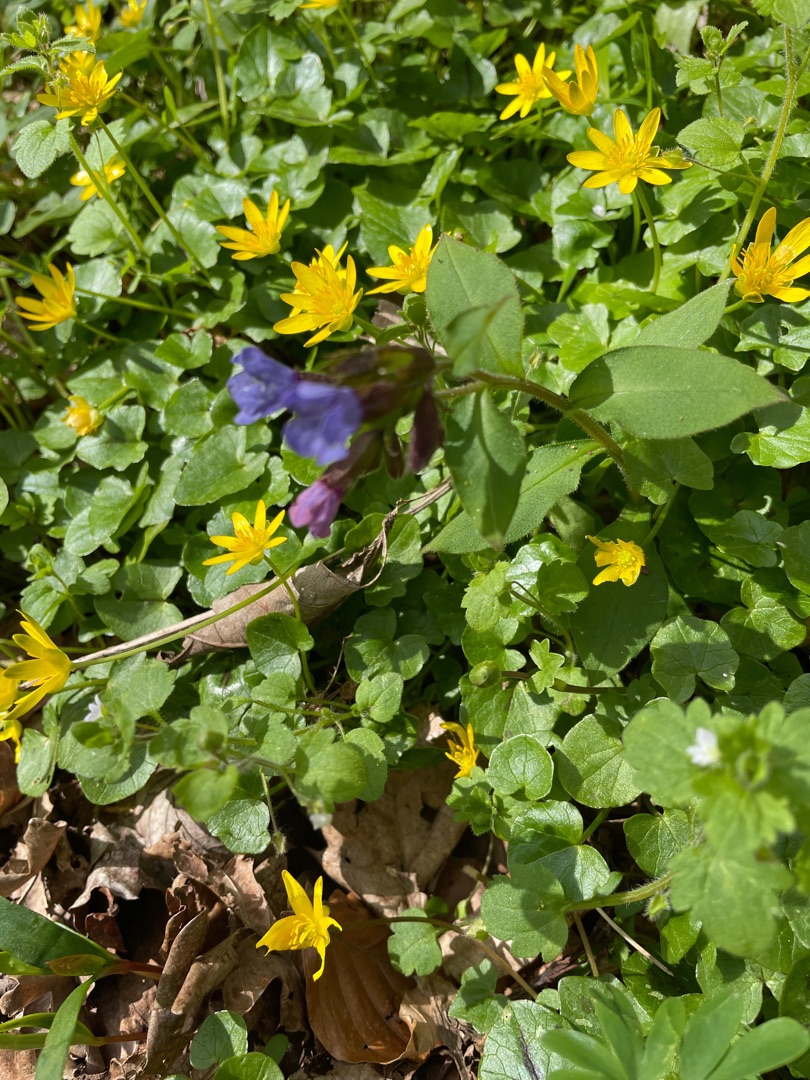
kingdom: Plantae
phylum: Tracheophyta
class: Magnoliopsida
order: Boraginales
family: Boraginaceae
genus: Pulmonaria
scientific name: Pulmonaria obscura
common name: Almindelig lungeurt
